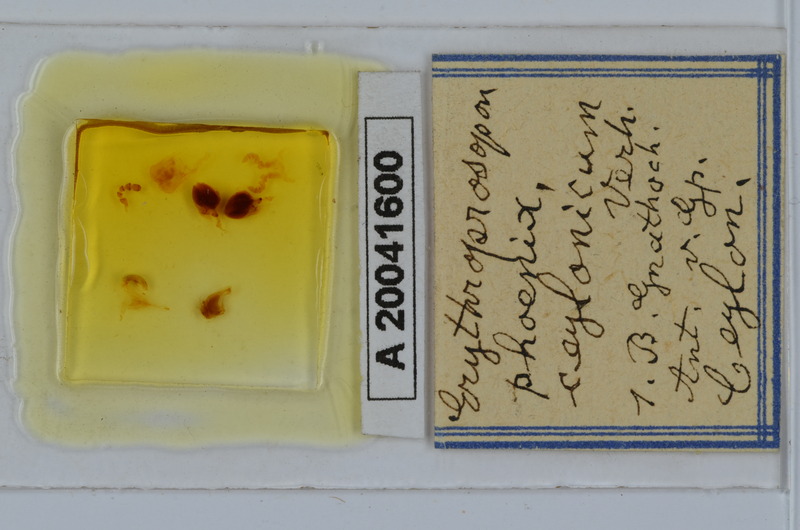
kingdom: Animalia
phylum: Arthropoda
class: Diplopoda
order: Spirobolida
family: Pachybolidae
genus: Erythroprosopon
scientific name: Erythroprosopon phoenix
